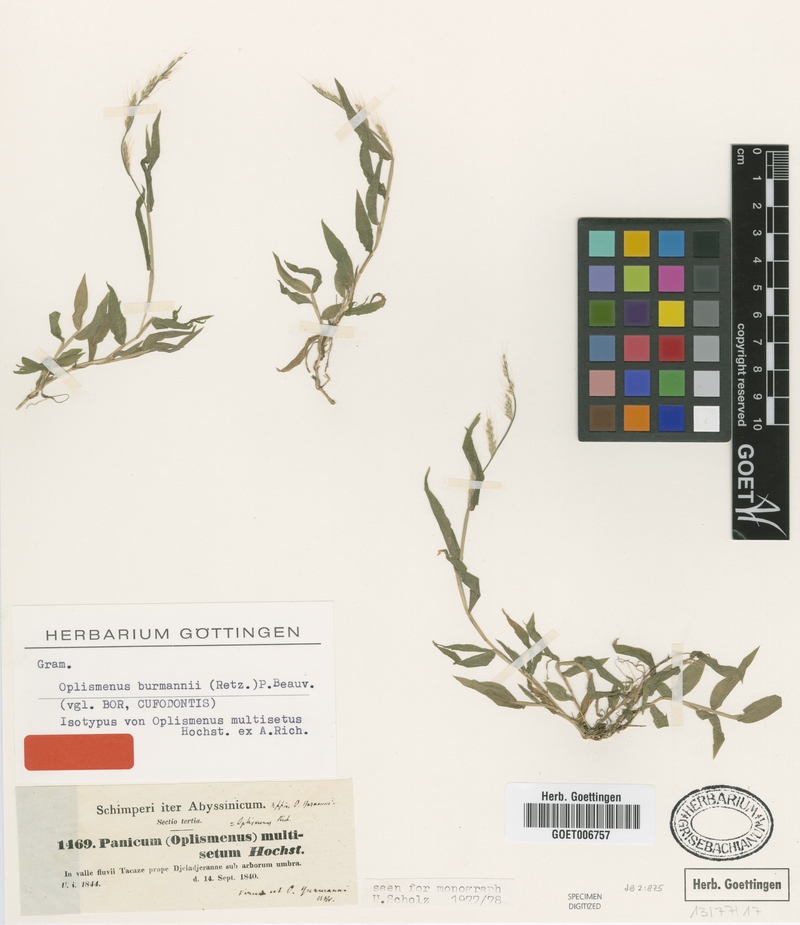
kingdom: Plantae
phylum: Tracheophyta
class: Liliopsida
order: Poales
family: Poaceae
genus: Oplismenus
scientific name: Oplismenus burmanni
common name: Burmann's basketgrass
